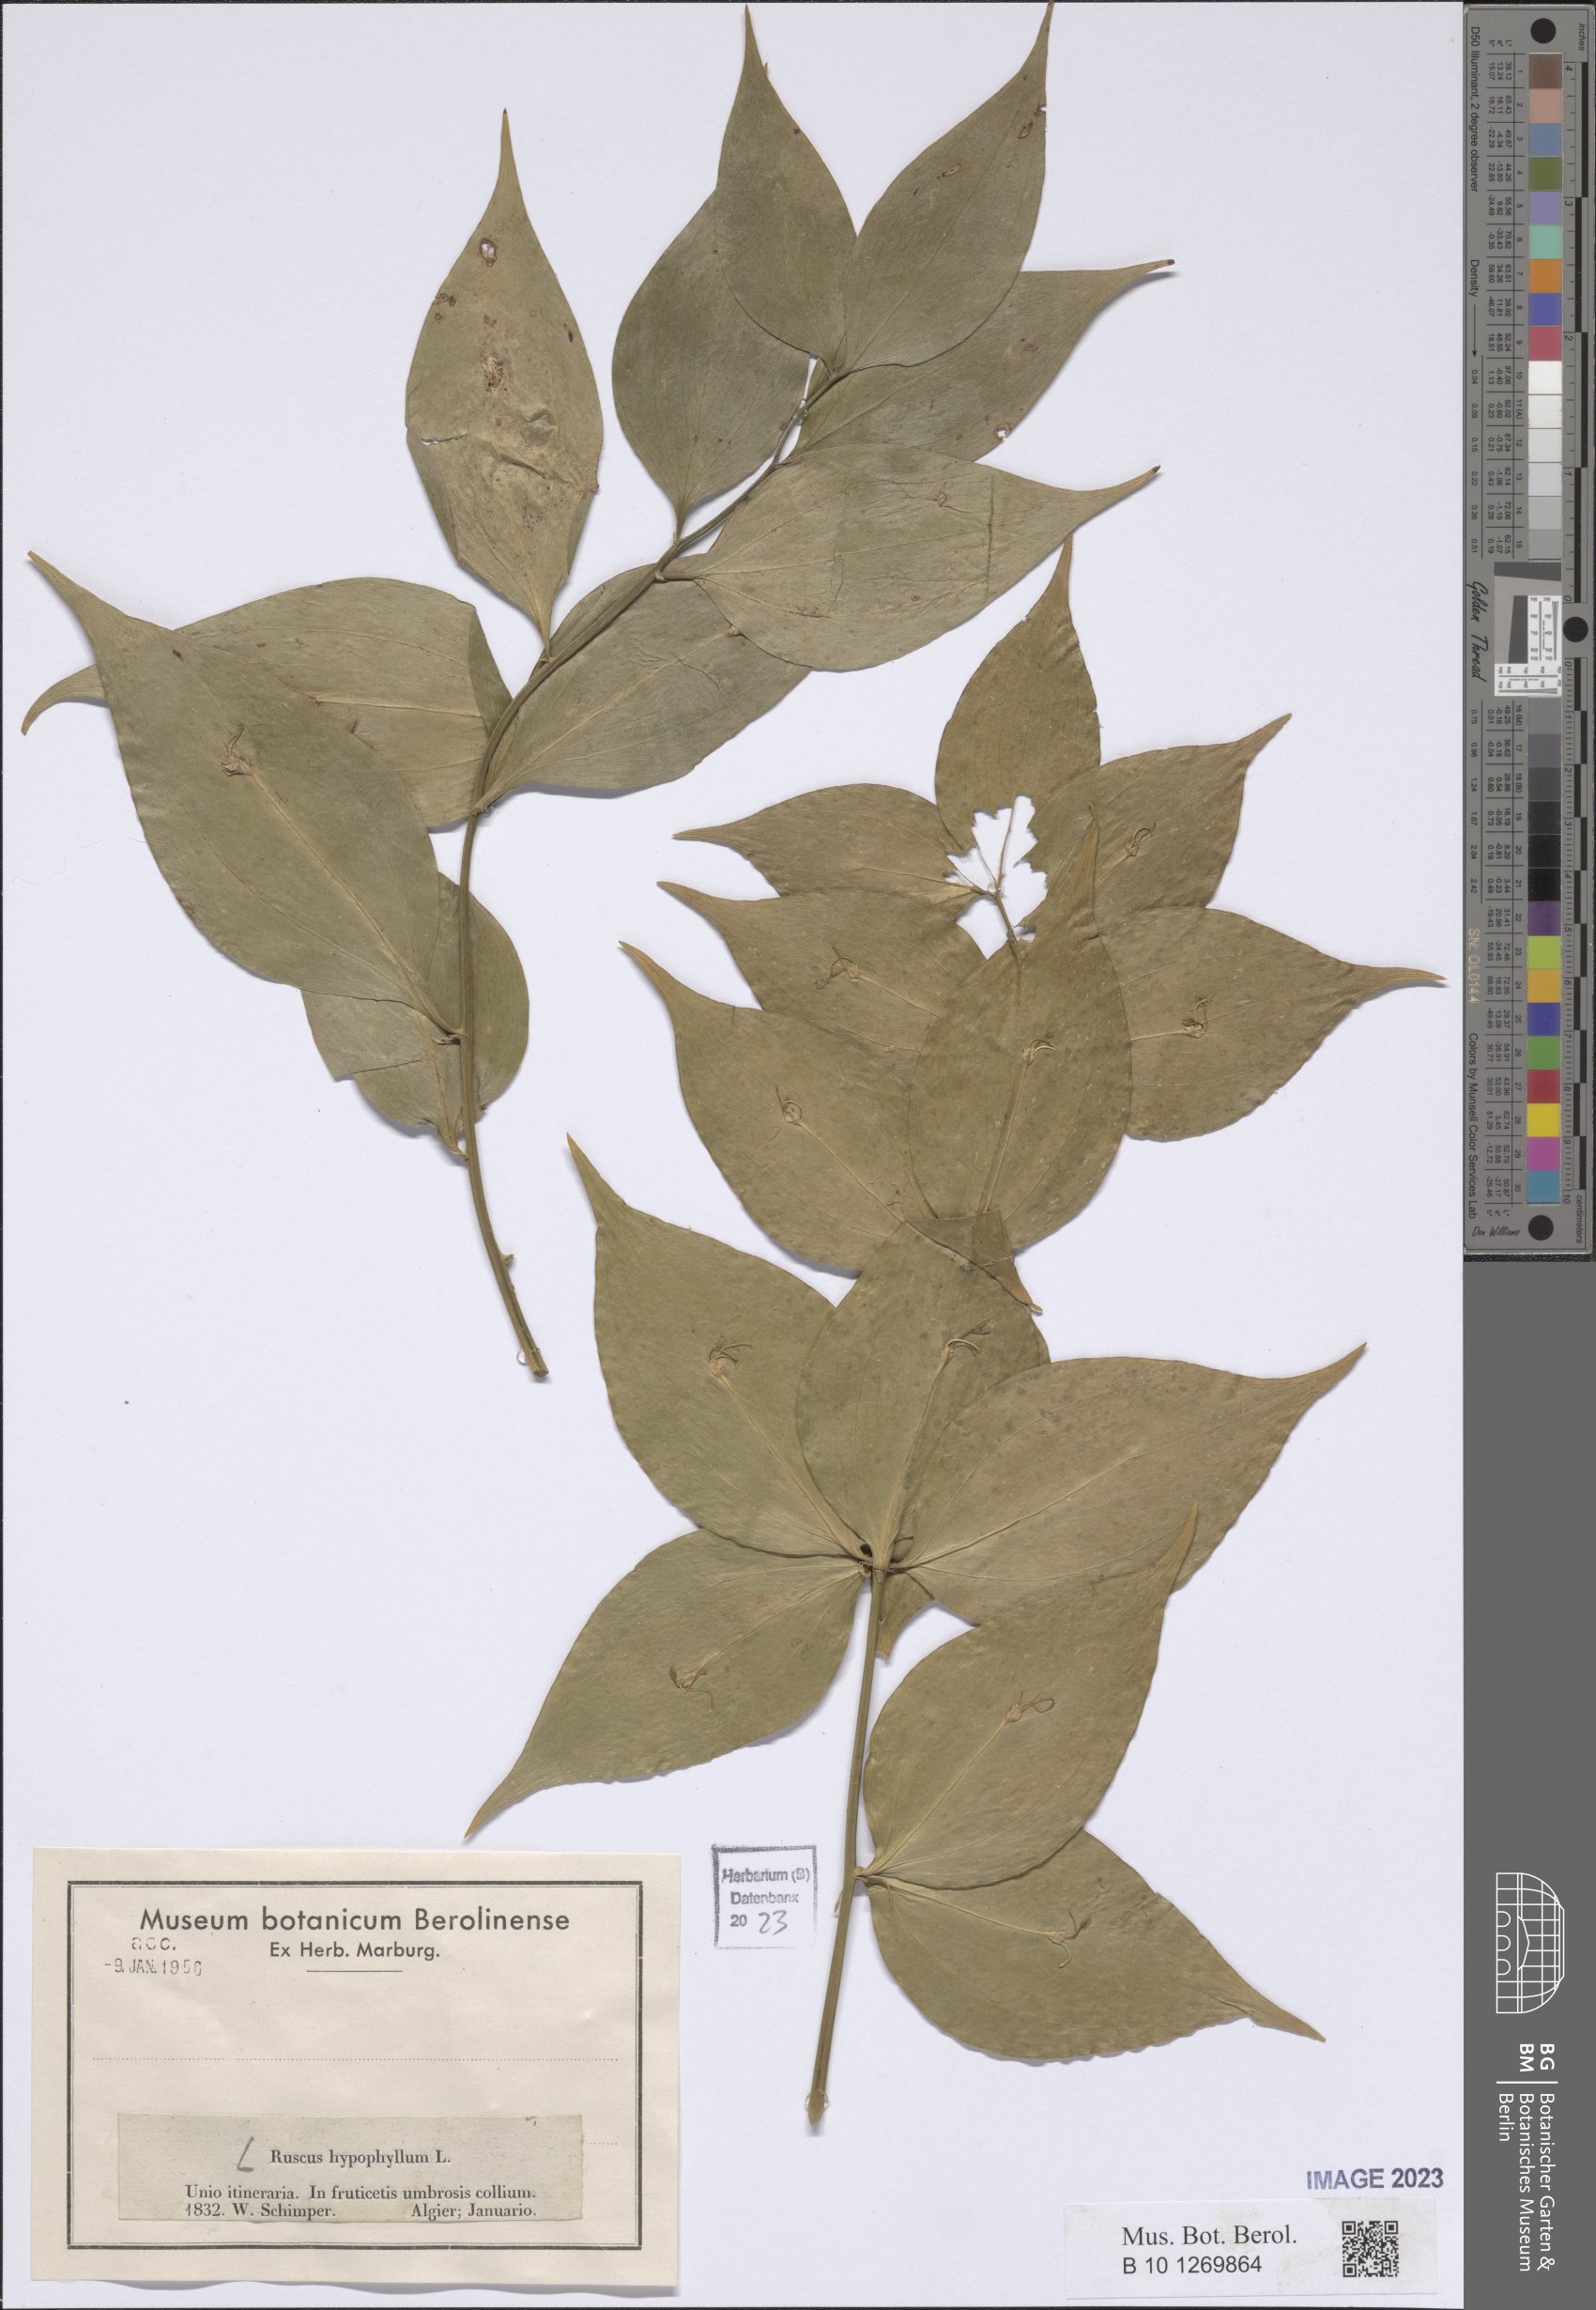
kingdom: Plantae
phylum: Tracheophyta
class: Liliopsida
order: Asparagales
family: Asparagaceae
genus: Ruscus
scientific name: Ruscus hypophyllum
